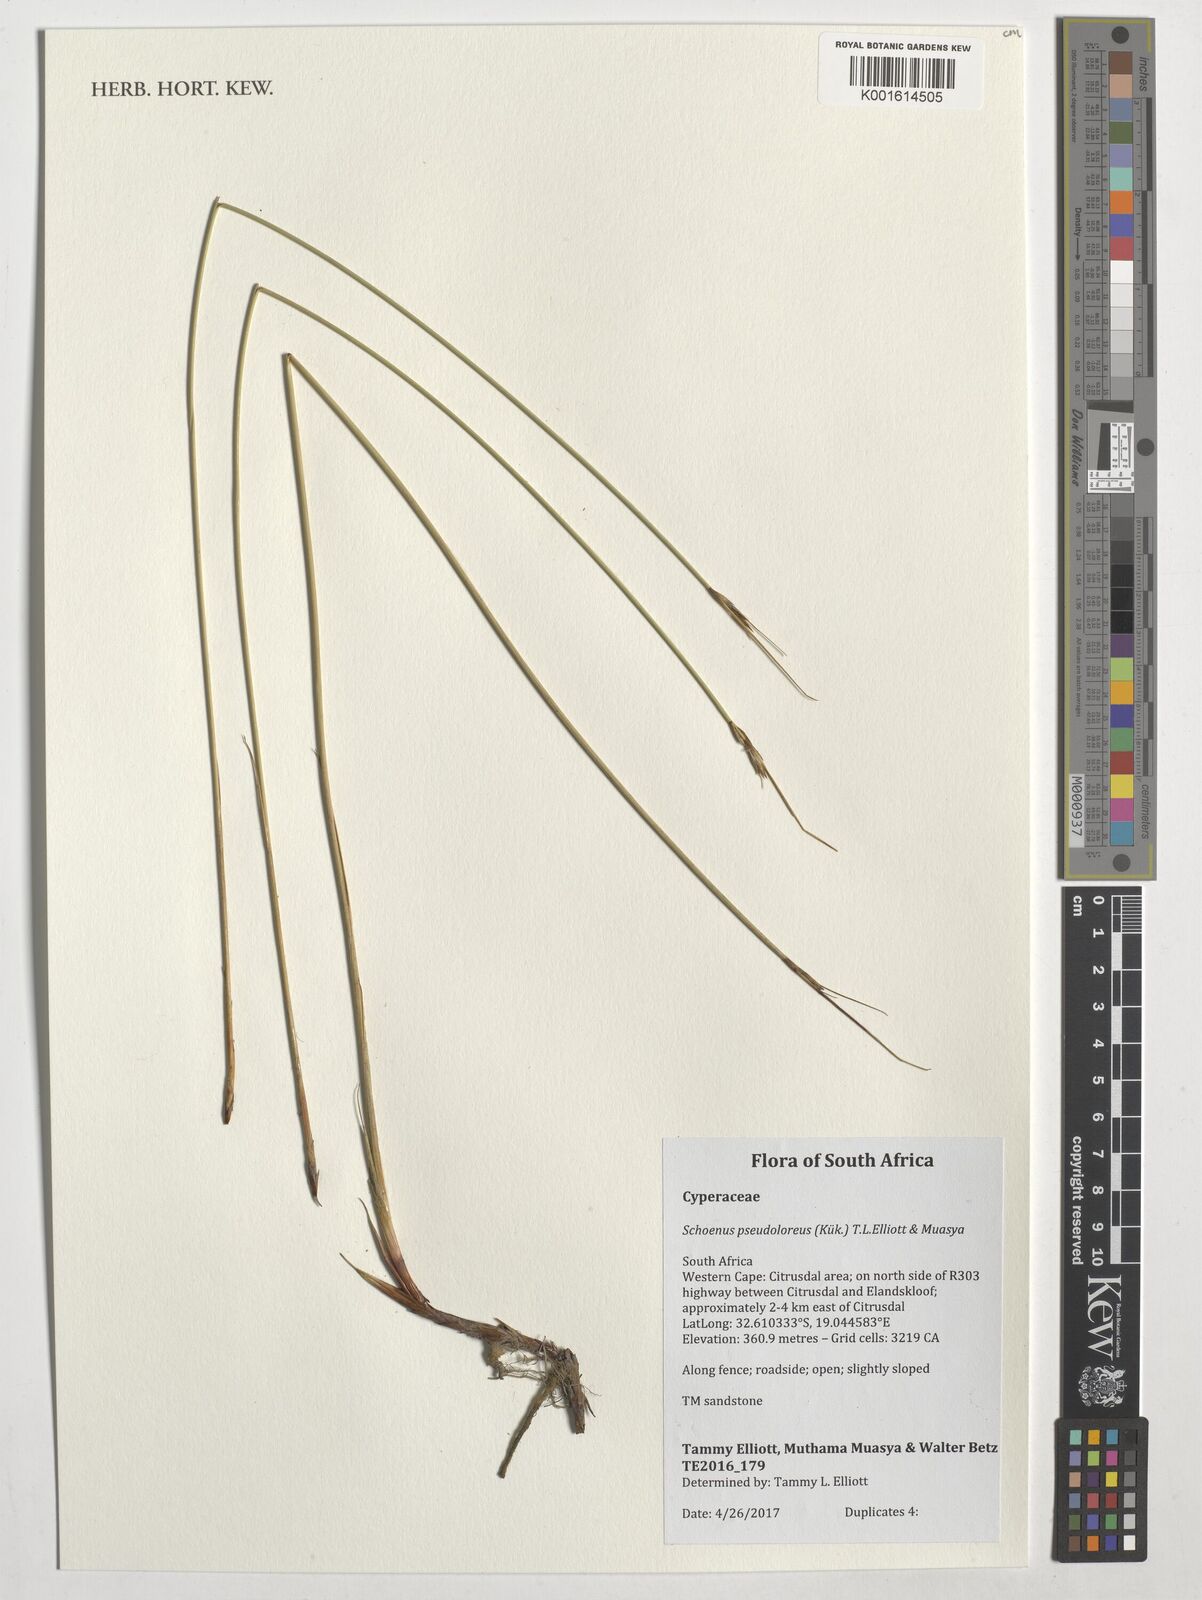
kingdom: Plantae
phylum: Tracheophyta
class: Liliopsida
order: Poales
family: Cyperaceae
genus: Schoenus
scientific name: Schoenus pseudoloreus
